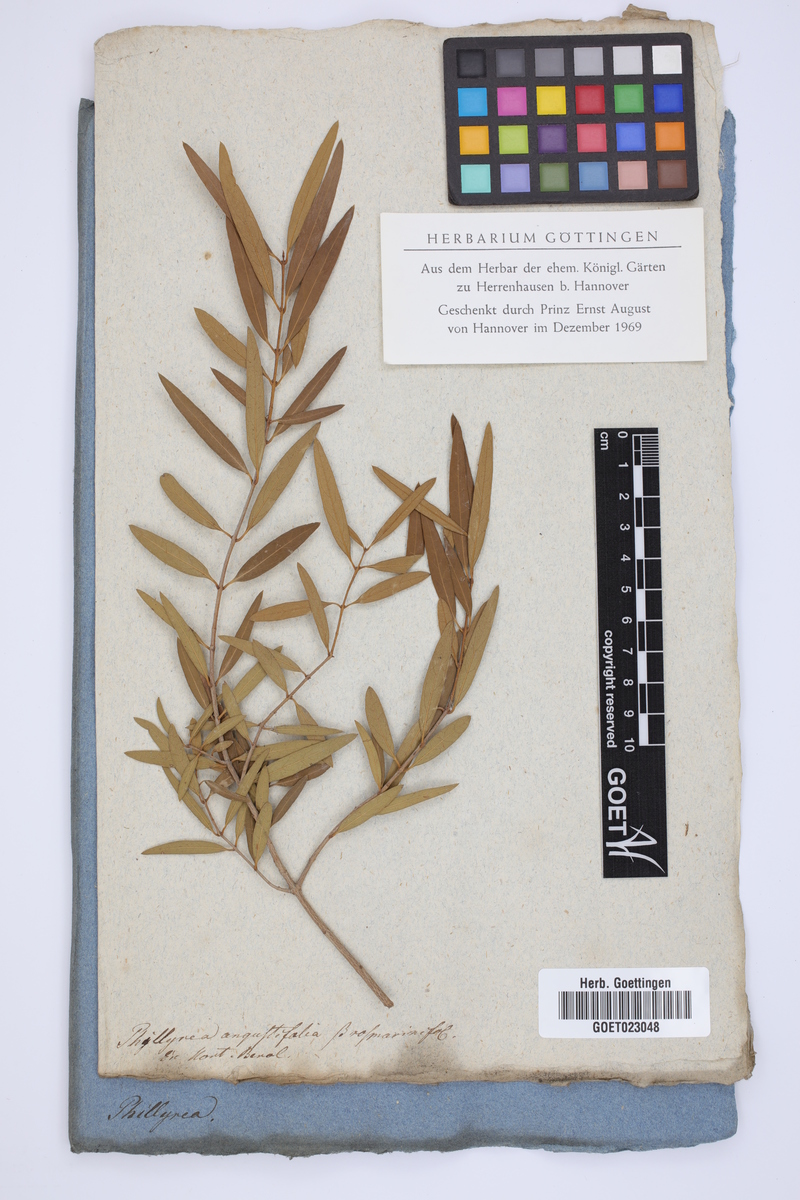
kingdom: Plantae
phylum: Tracheophyta
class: Magnoliopsida
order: Lamiales
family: Oleaceae
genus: Phillyrea
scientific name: Phillyrea angustifolia
